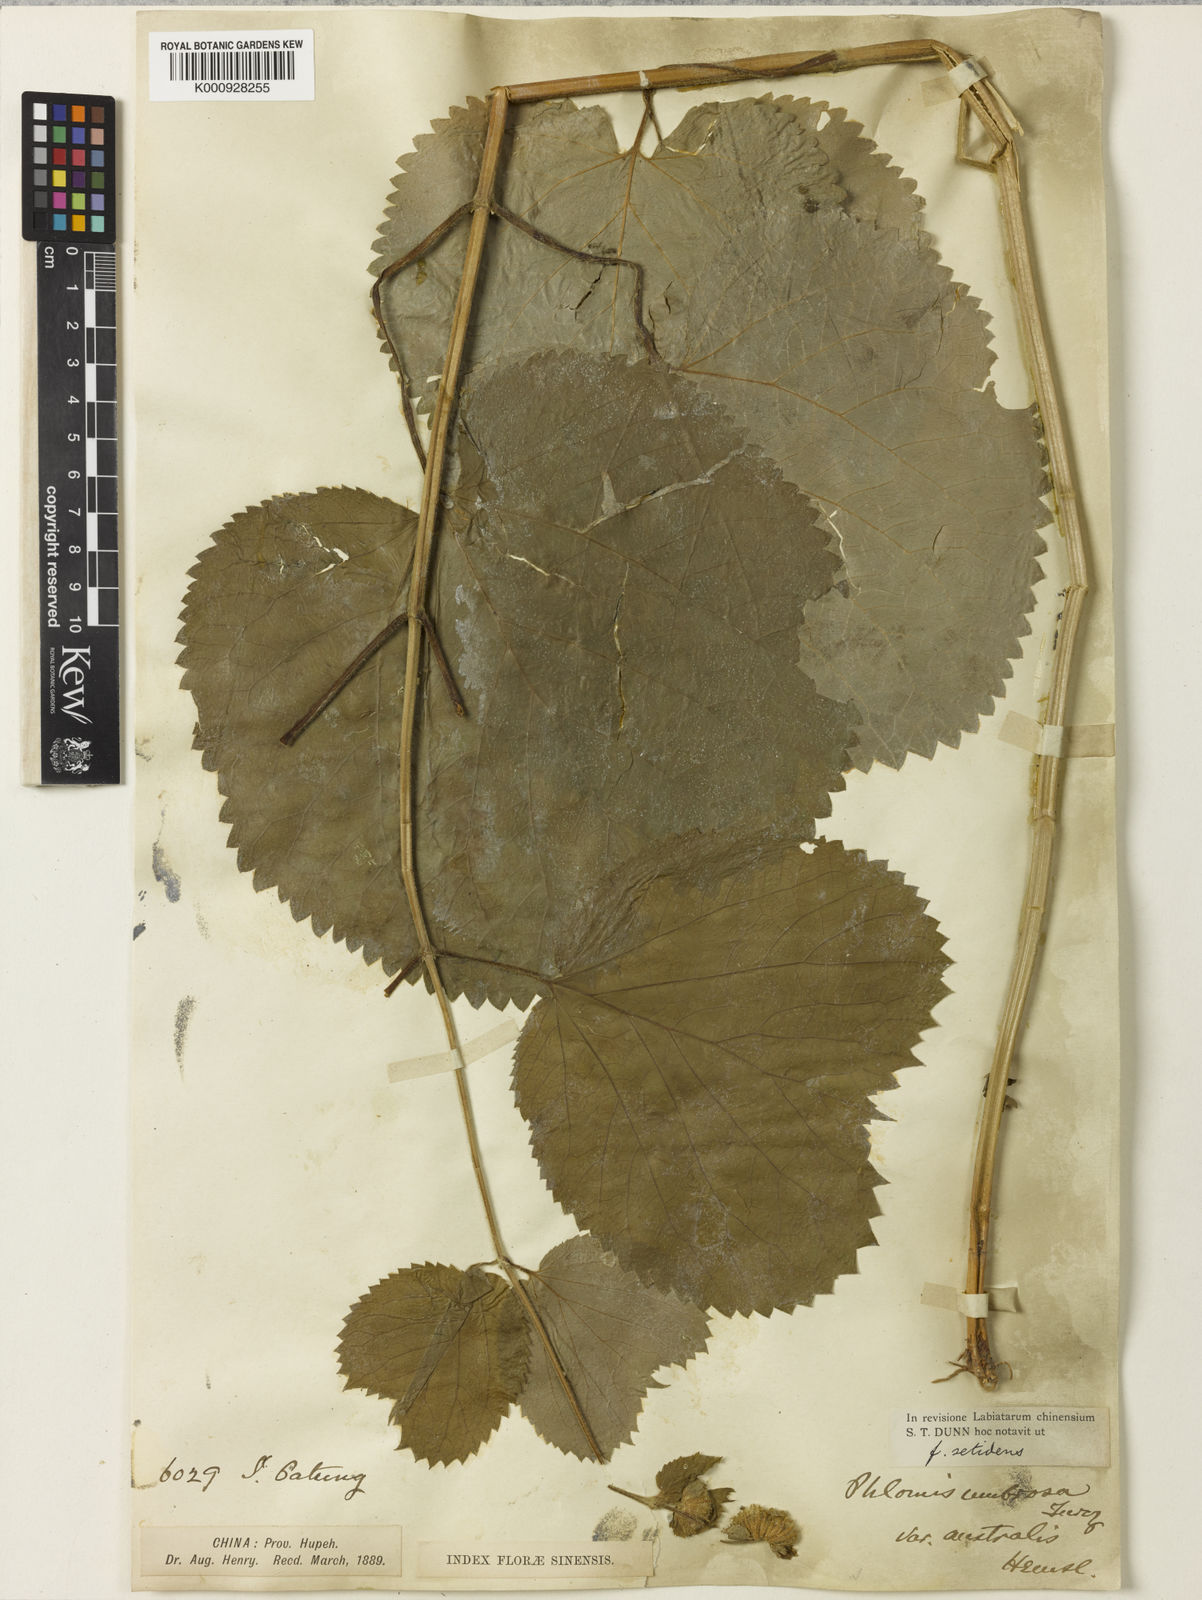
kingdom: Plantae
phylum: Tracheophyta
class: Magnoliopsida
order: Lamiales
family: Lamiaceae
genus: Phlomoides
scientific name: Phlomoides umbrosa
